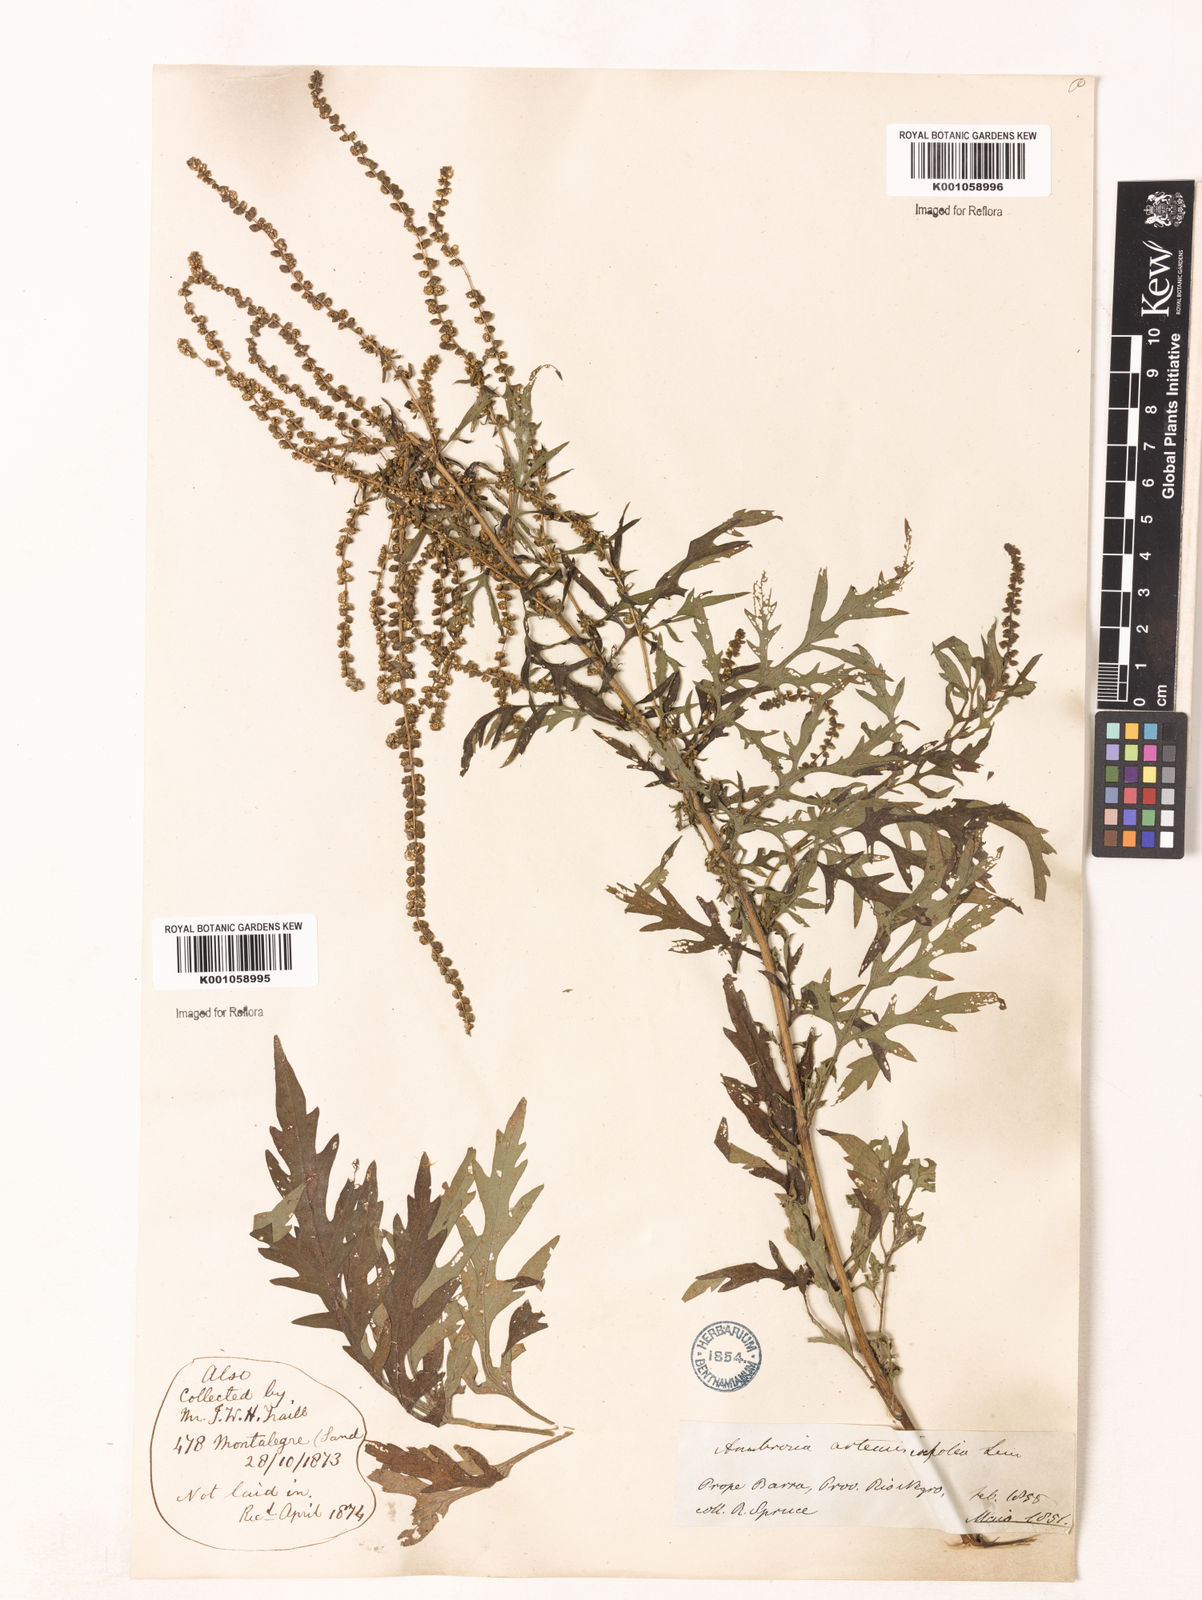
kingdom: Plantae
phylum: Tracheophyta
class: Magnoliopsida
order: Asterales
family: Asteraceae
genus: Ambrosia
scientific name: Ambrosia artemisiifolia
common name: Annual ragweed
